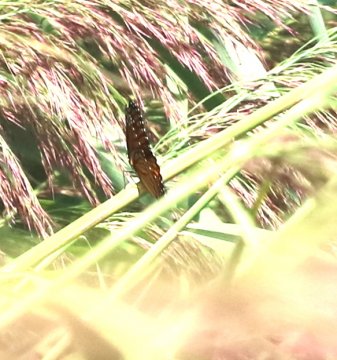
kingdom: Animalia
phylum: Arthropoda
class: Insecta
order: Lepidoptera
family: Nymphalidae
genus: Limenitis
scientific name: Limenitis archippus
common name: Viceroy
